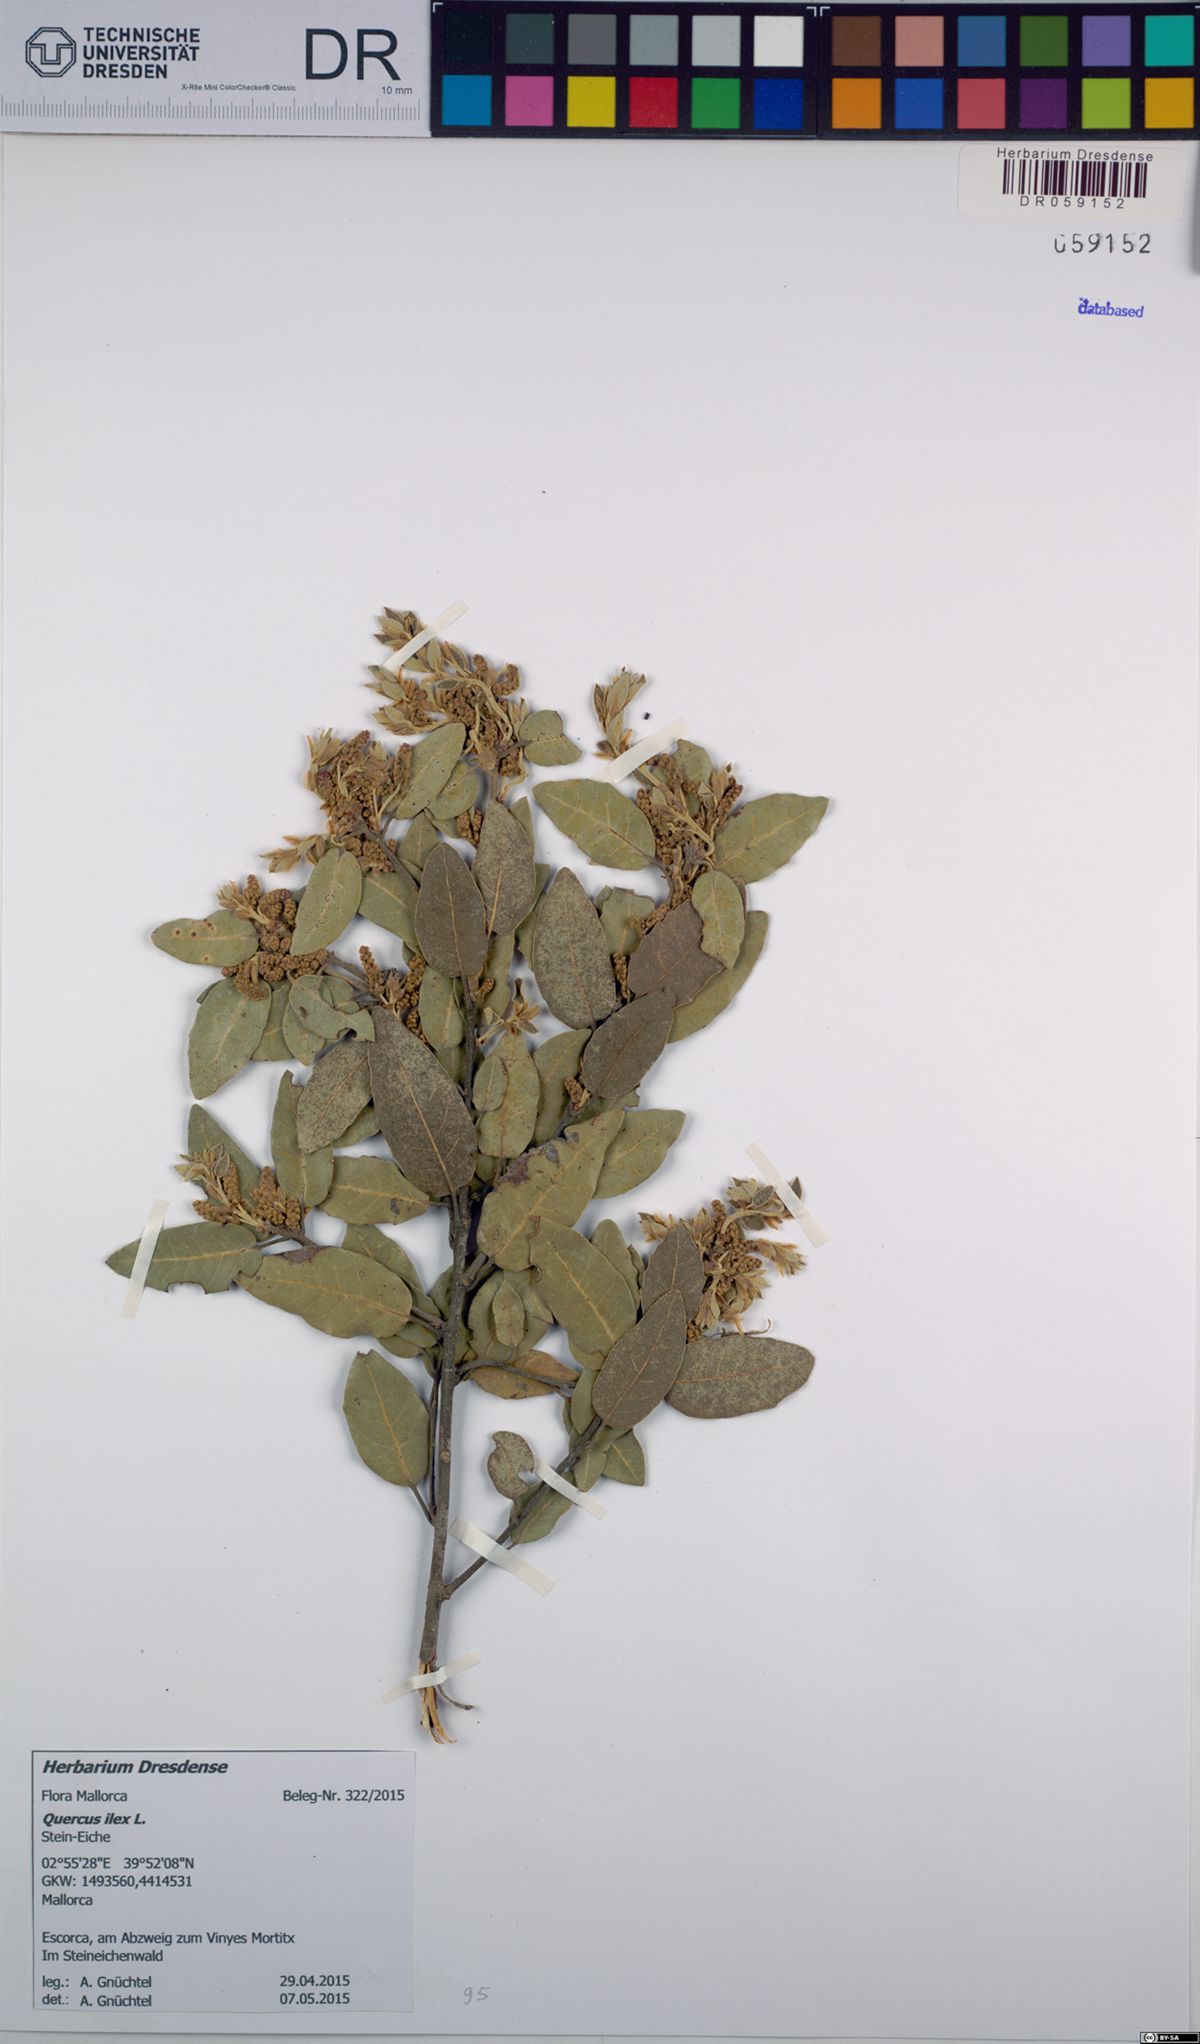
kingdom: Plantae
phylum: Tracheophyta
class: Magnoliopsida
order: Fagales
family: Fagaceae
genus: Quercus
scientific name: Quercus ilex
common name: Evergreen oak
